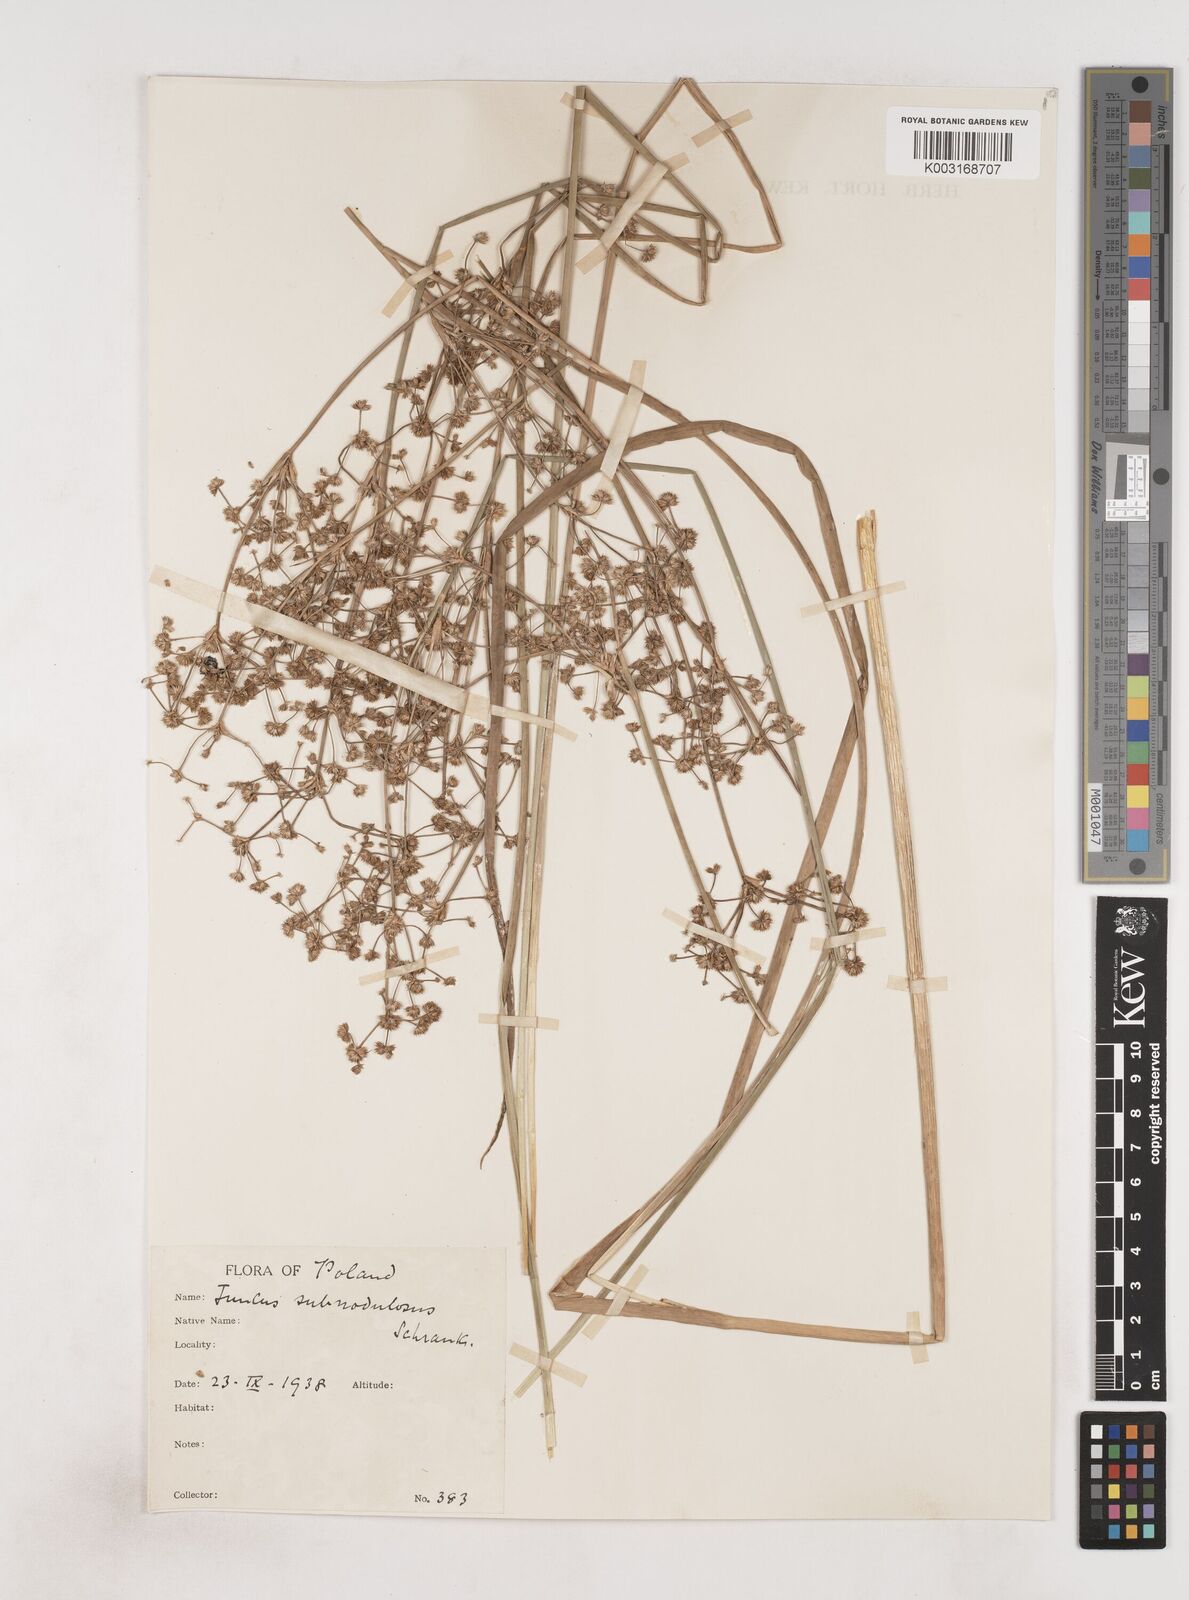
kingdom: Plantae
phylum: Tracheophyta
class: Liliopsida
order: Poales
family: Juncaceae
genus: Juncus
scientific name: Juncus subnodulosus
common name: Blunt-flowered rush
